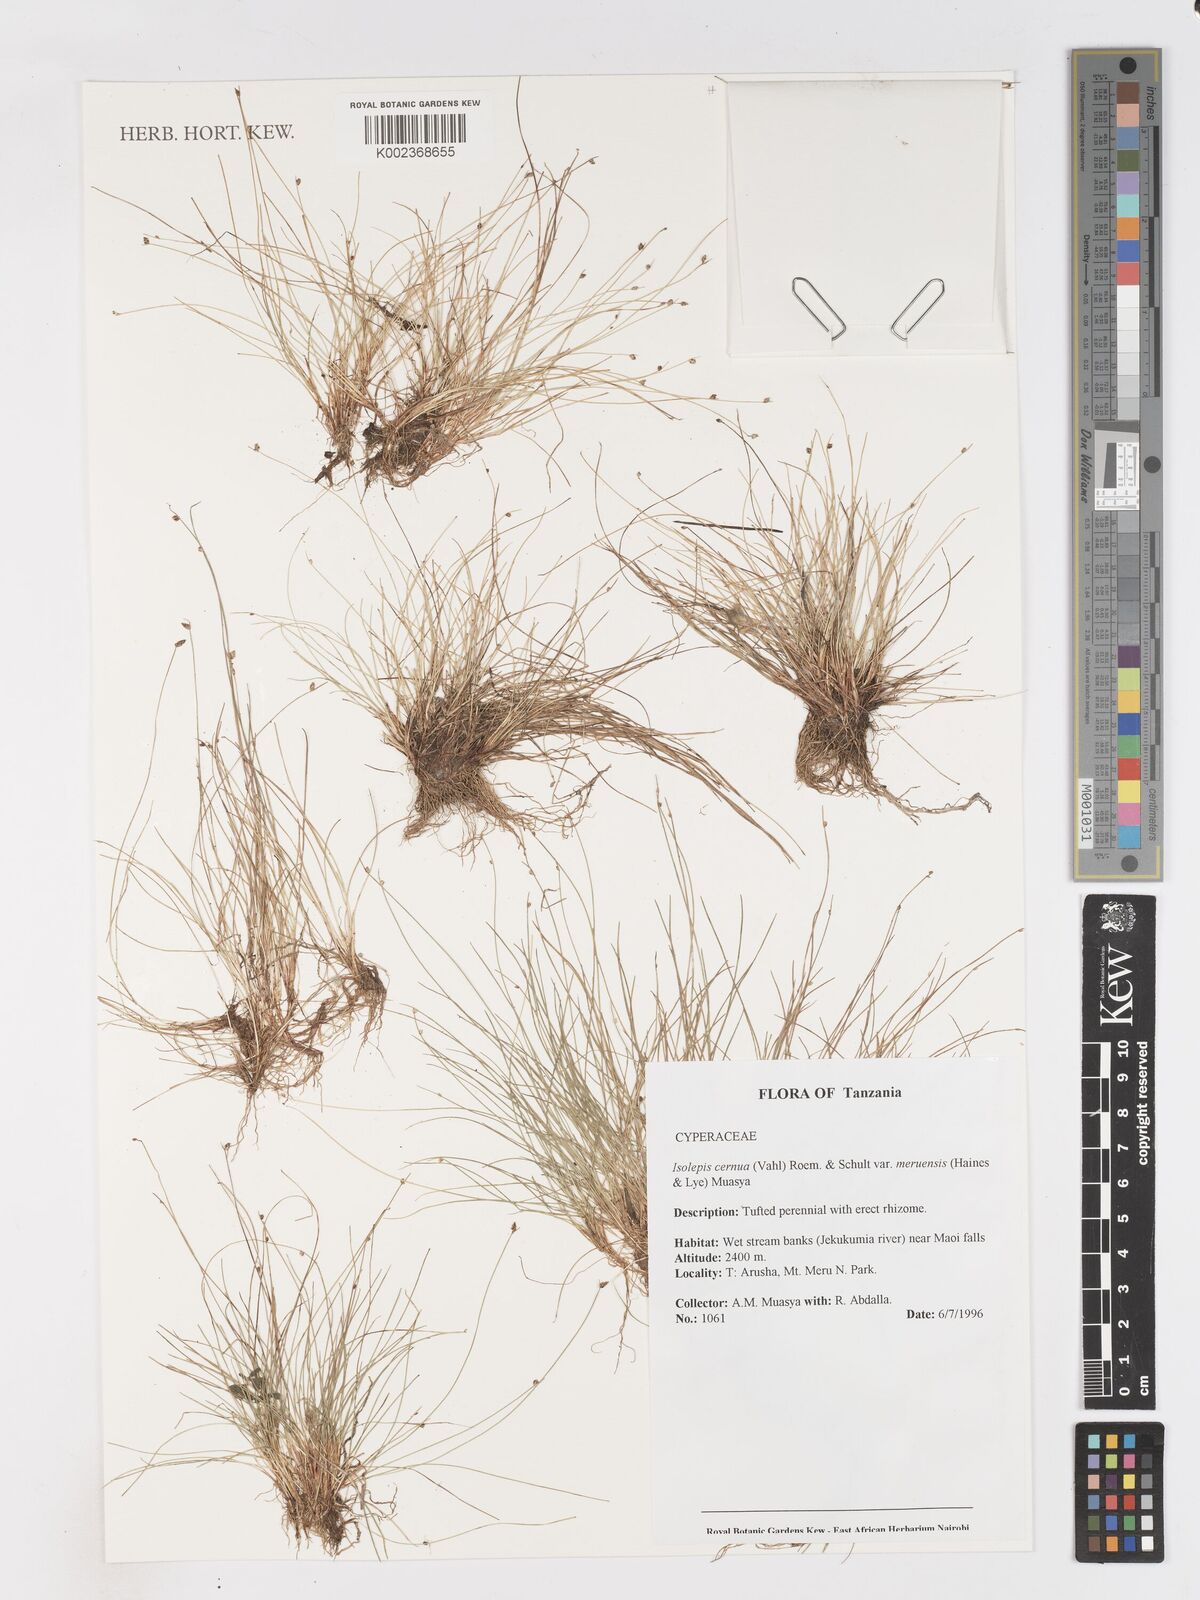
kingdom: Plantae
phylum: Tracheophyta
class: Liliopsida
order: Poales
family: Cyperaceae
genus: Isolepis
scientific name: Isolepis cernua
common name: Slender club-rush
